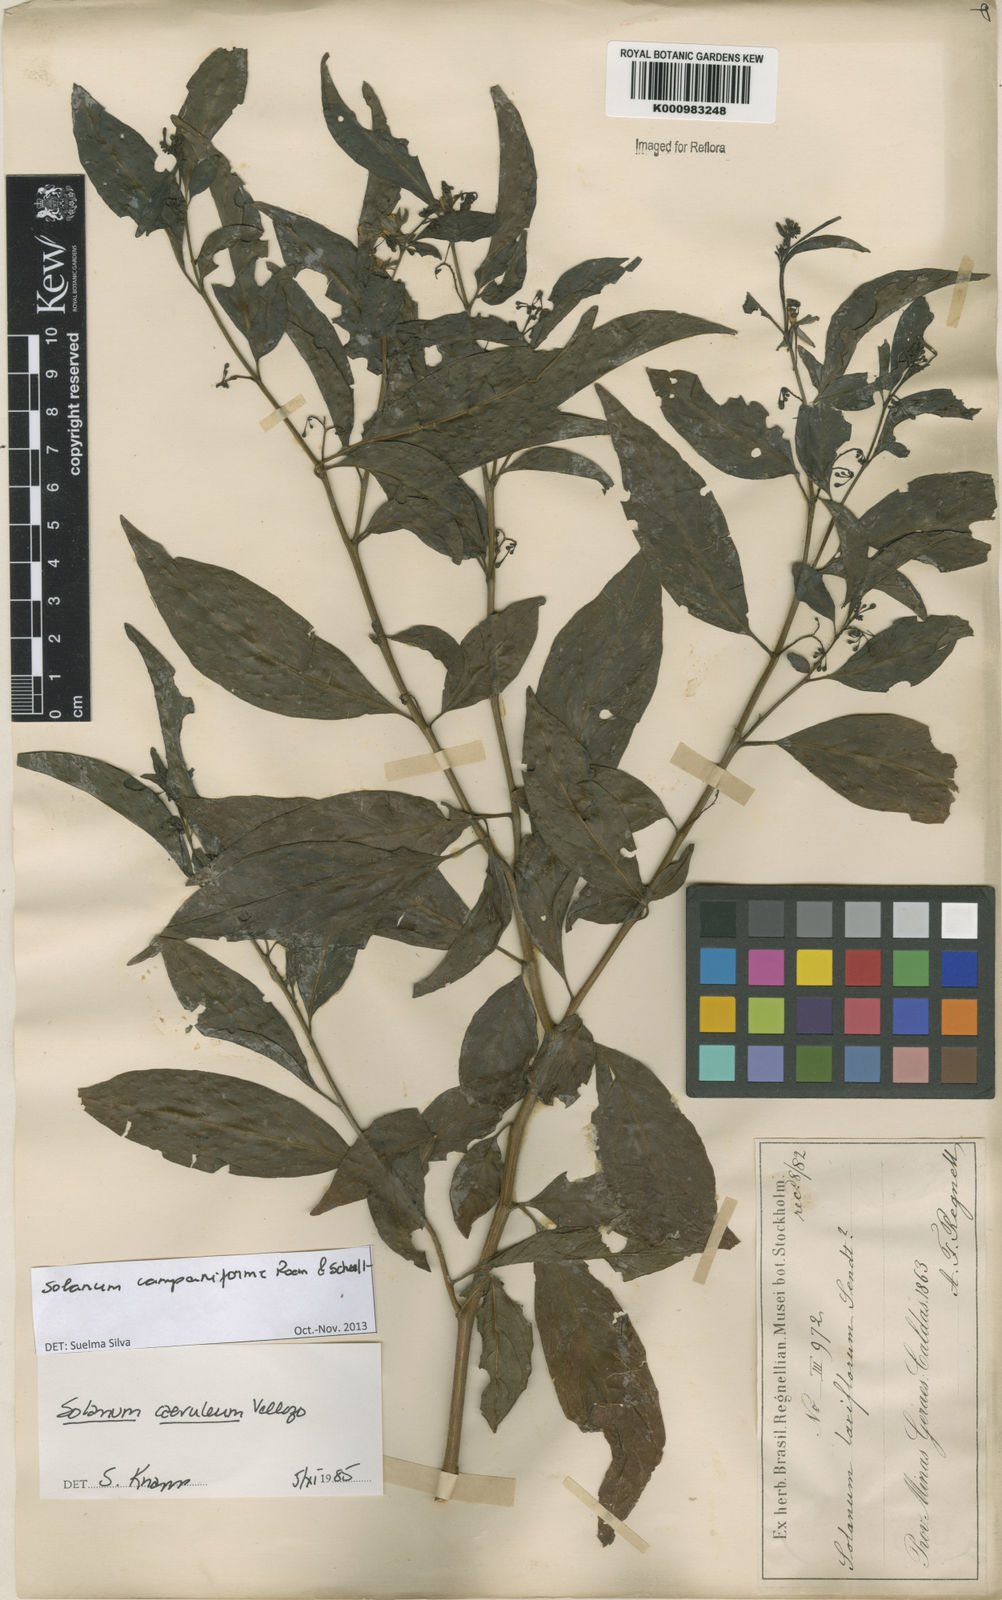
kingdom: Plantae
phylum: Tracheophyta
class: Magnoliopsida
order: Solanales
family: Solanaceae
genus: Solanum
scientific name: Solanum campaniforme
